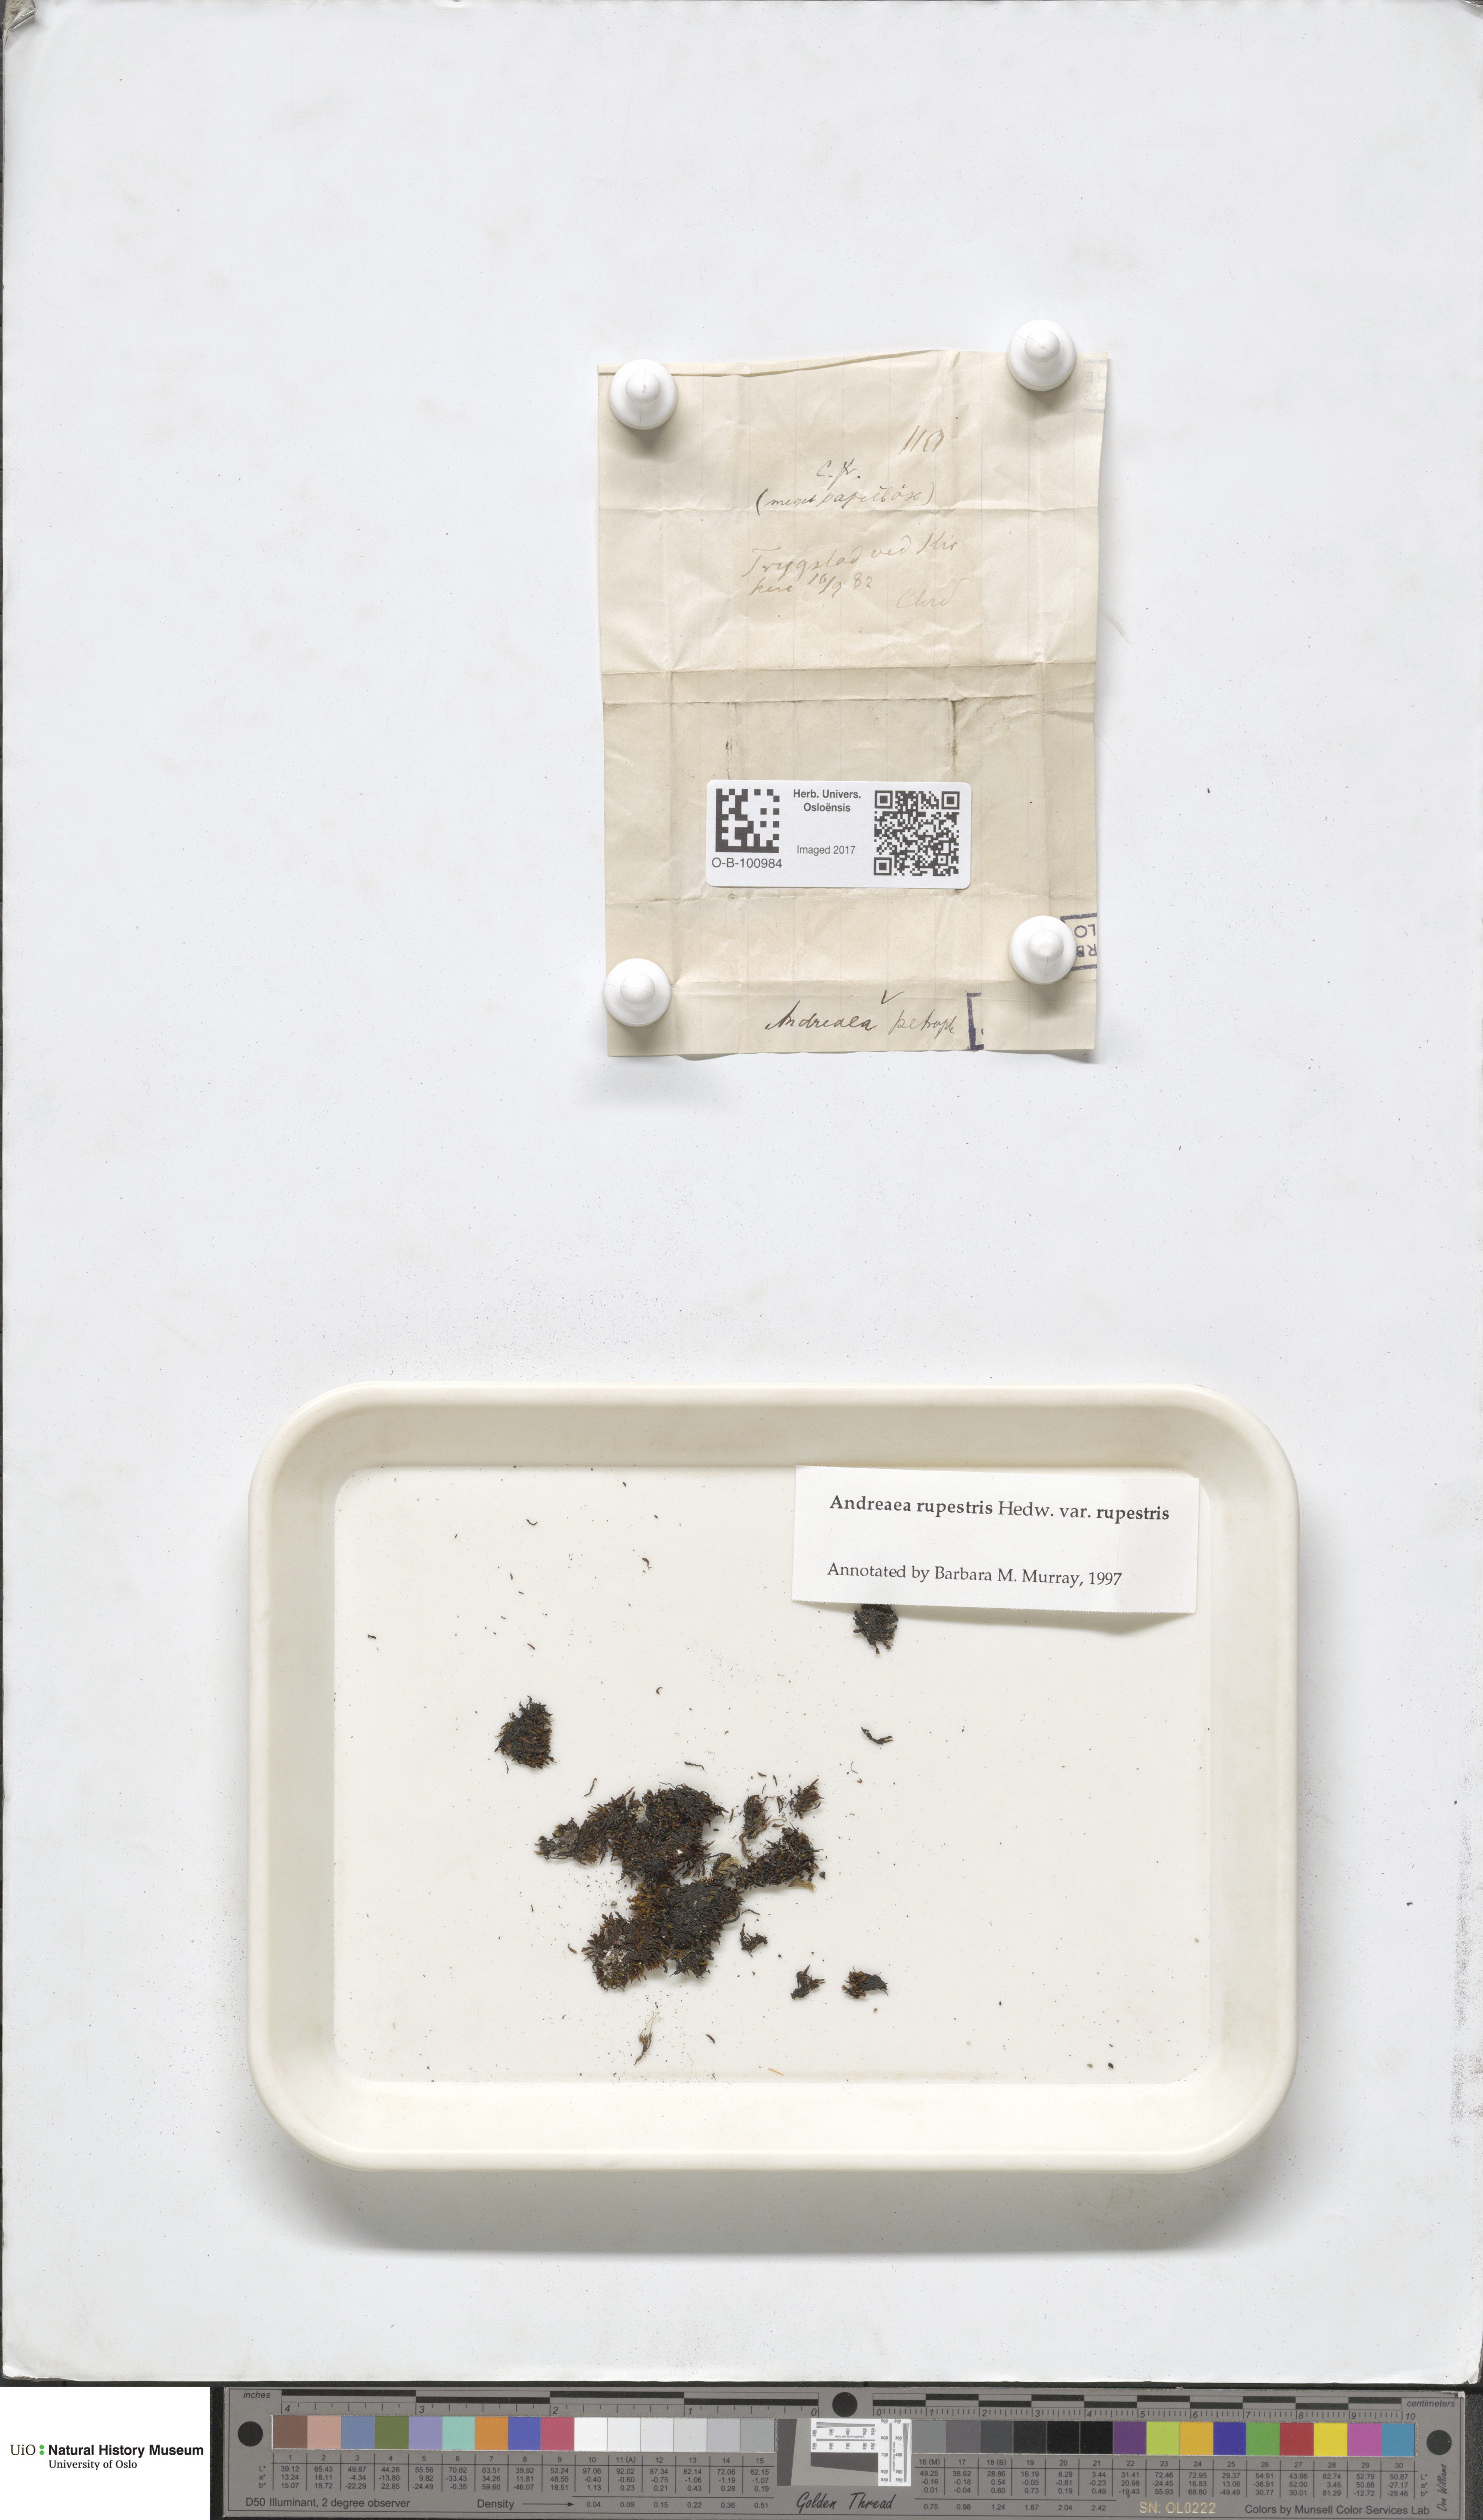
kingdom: Plantae
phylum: Bryophyta
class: Andreaeopsida
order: Andreaeales
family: Andreaeaceae
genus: Andreaea
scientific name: Andreaea rupestris
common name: Black rock moss
